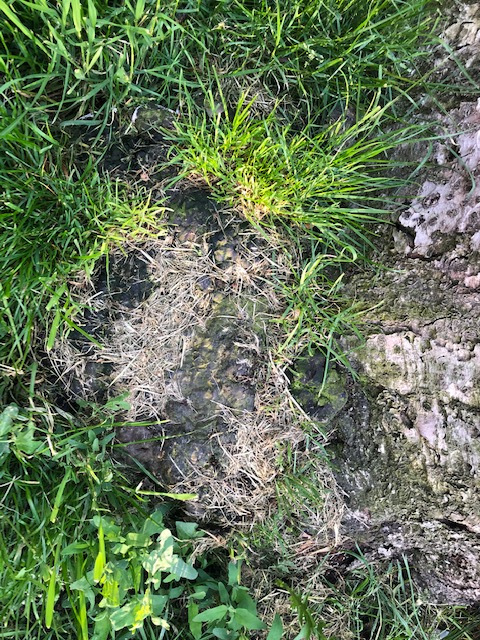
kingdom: Fungi
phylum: Basidiomycota
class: Agaricomycetes
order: Polyporales
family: Polyporaceae
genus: Ganoderma
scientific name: Ganoderma applanatum
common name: flad lakporesvamp
